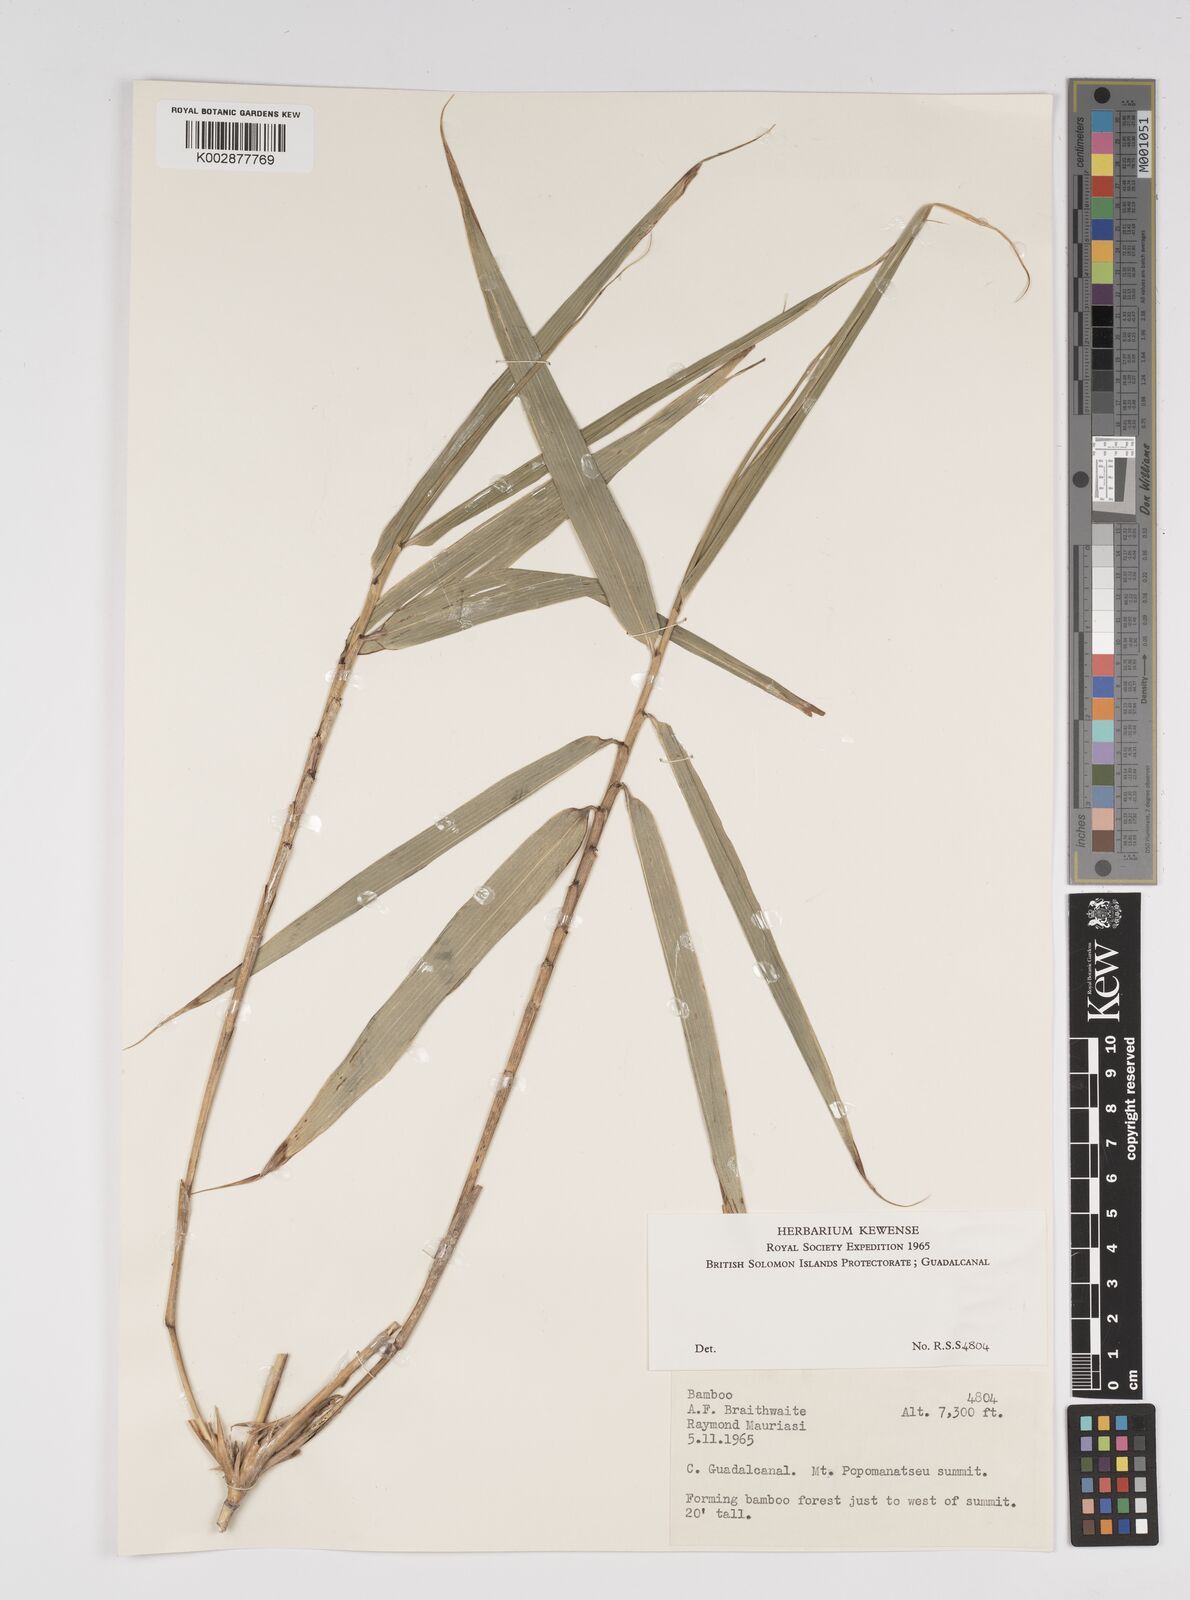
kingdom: Plantae
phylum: Tracheophyta
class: Liliopsida
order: Poales
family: Poaceae
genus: Bambusa
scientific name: Bambusa
